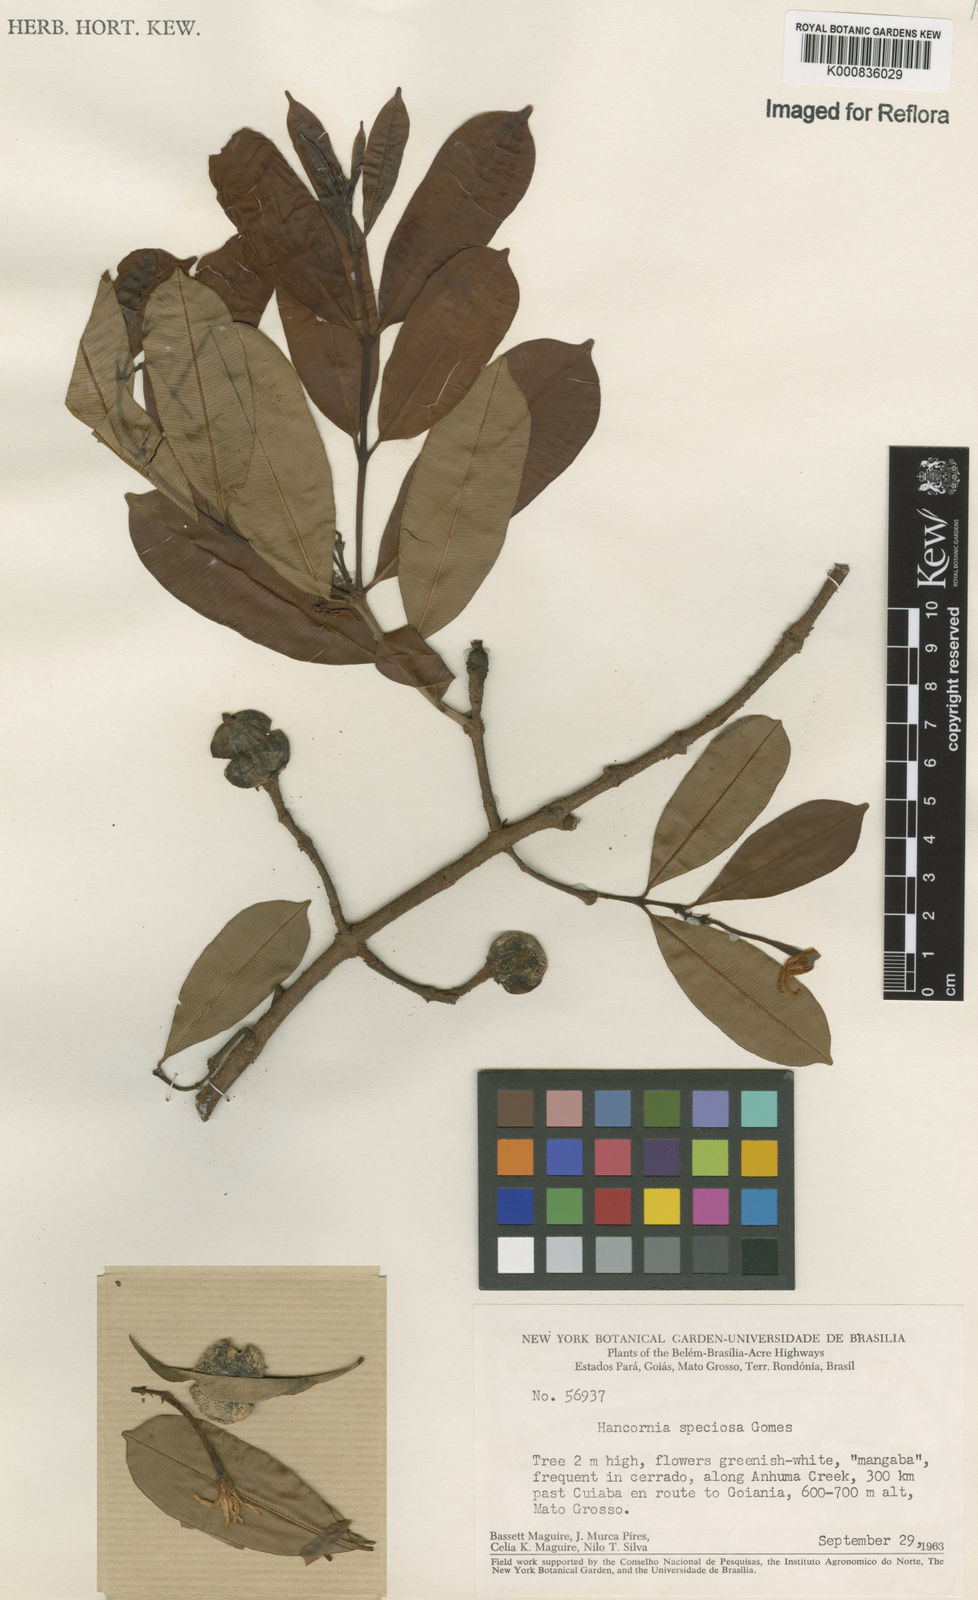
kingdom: Plantae
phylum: Tracheophyta
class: Magnoliopsida
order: Gentianales
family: Apocynaceae
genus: Hancornia
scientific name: Hancornia speciosa
